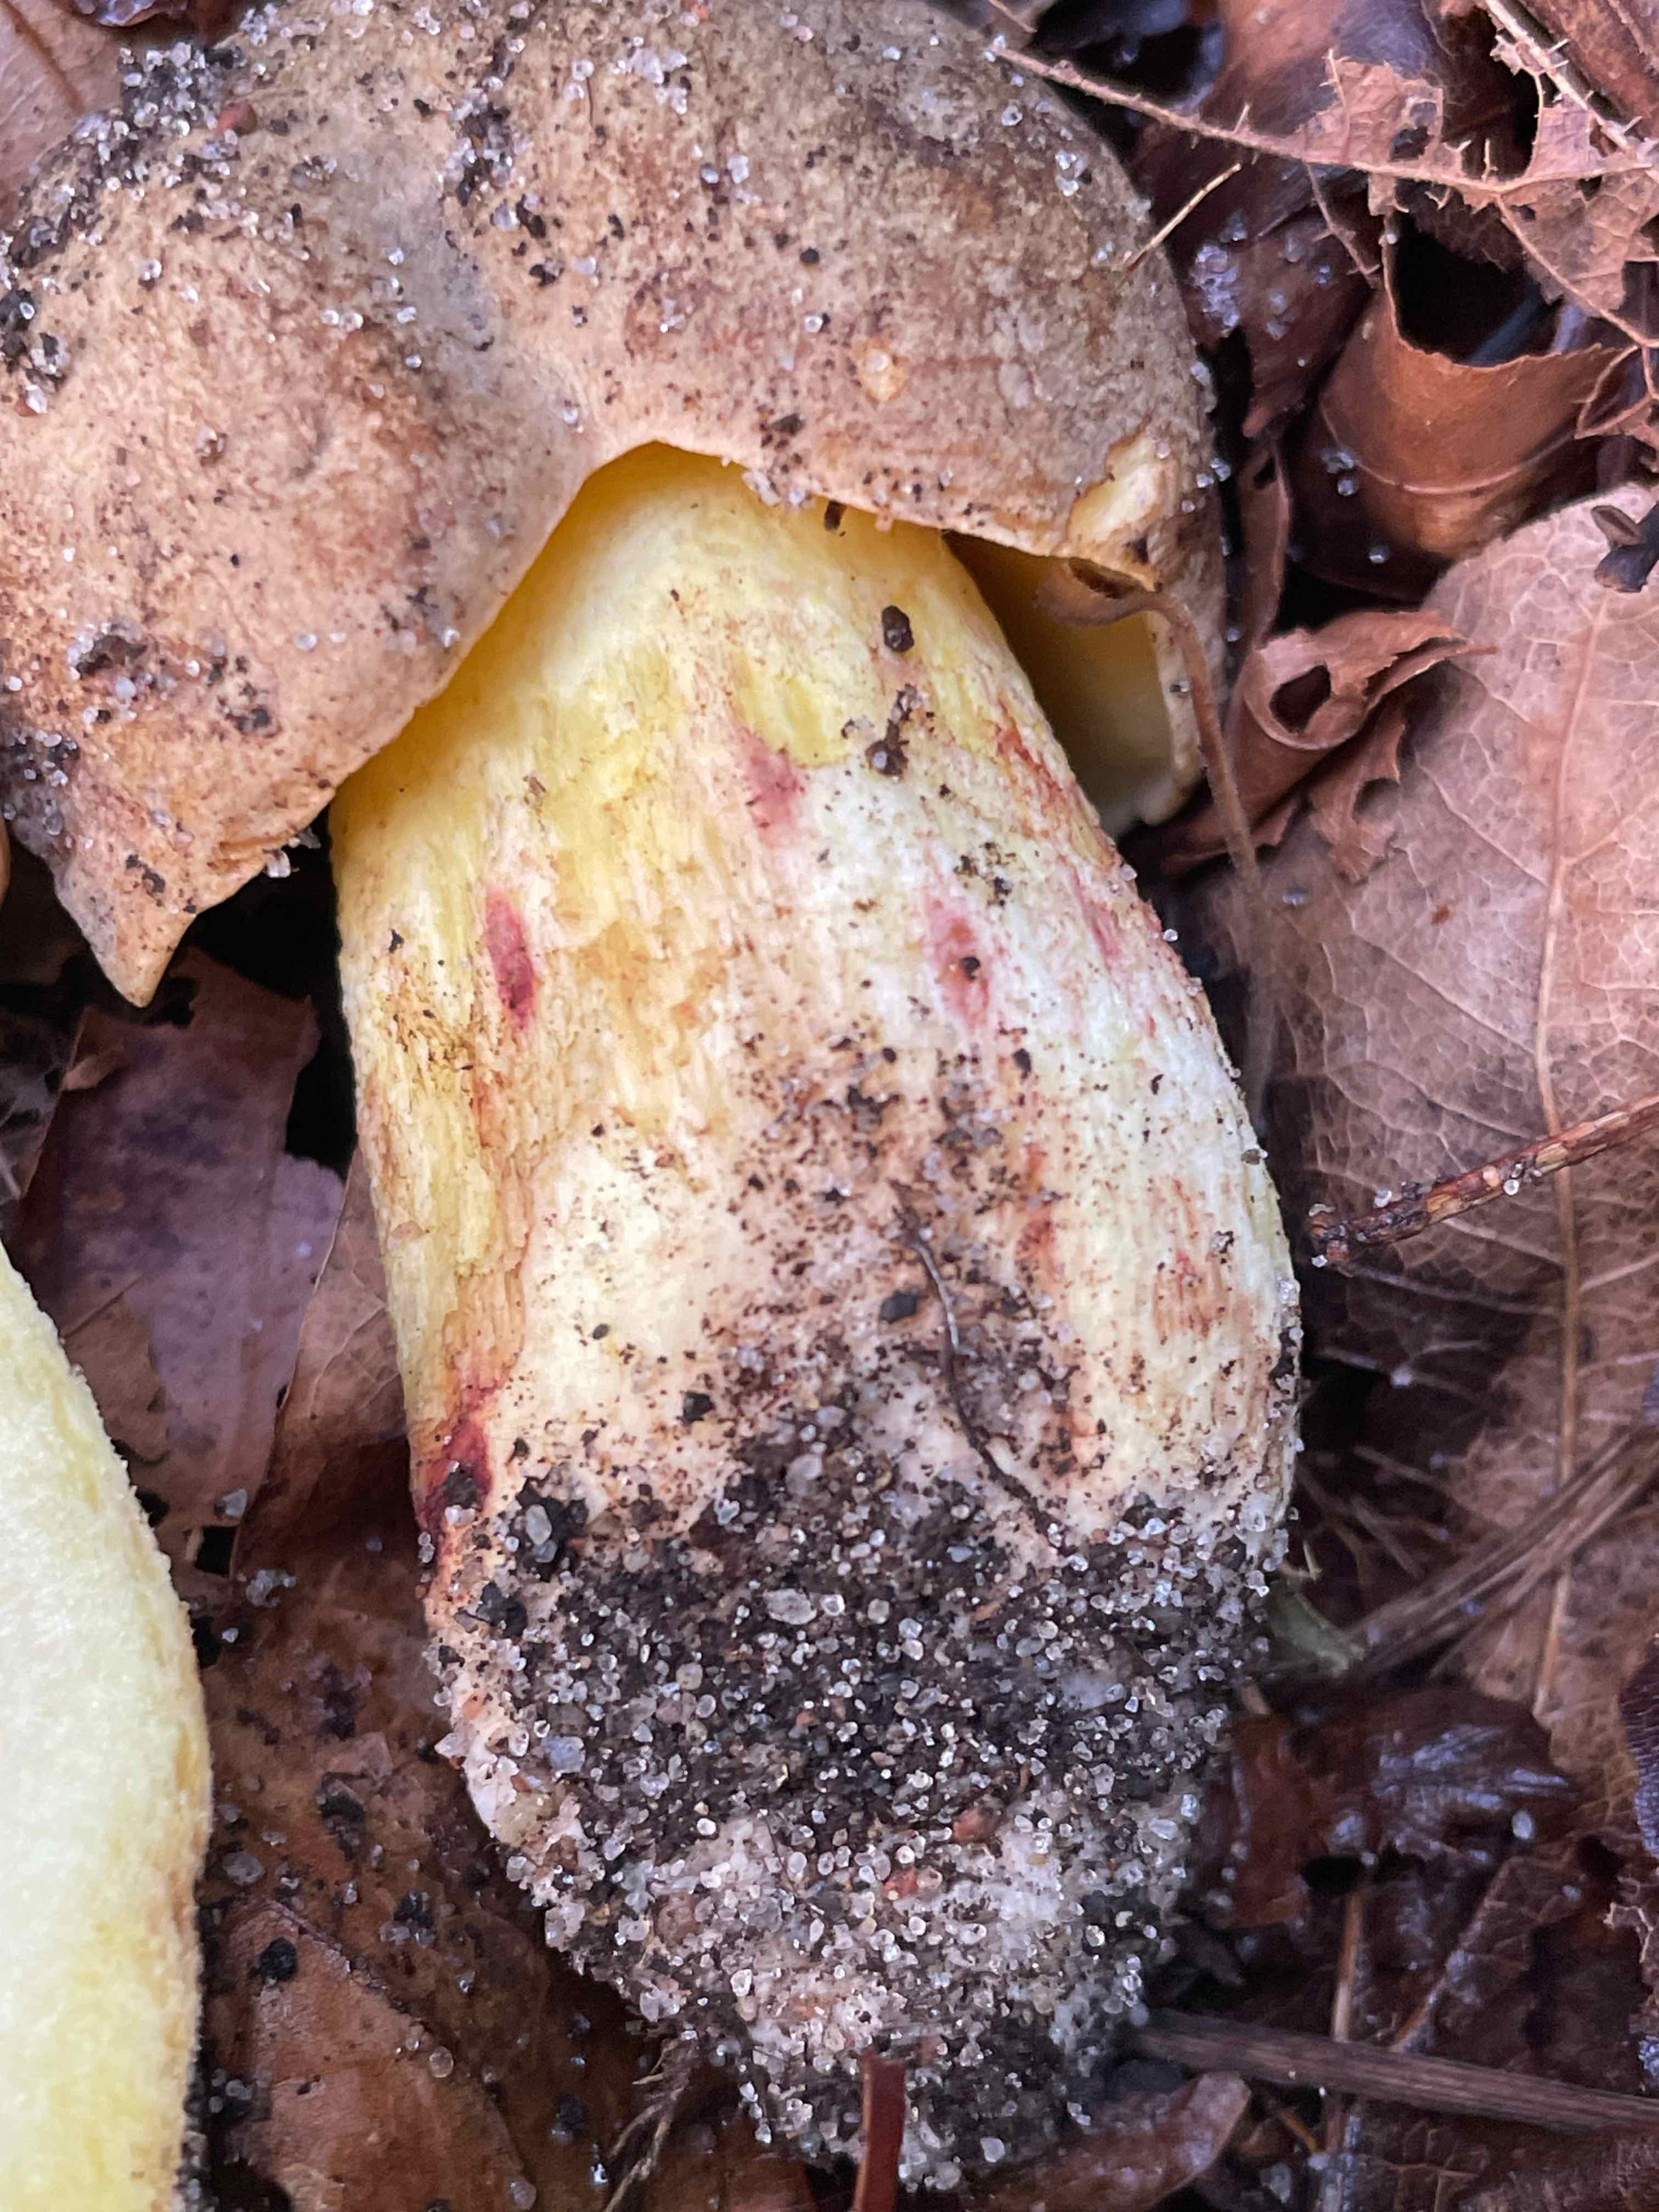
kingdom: Fungi
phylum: Basidiomycota
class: Agaricomycetes
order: Boletales
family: Boletaceae
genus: Butyriboletus
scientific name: Butyriboletus appendiculatus
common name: tenstokket rørhat
